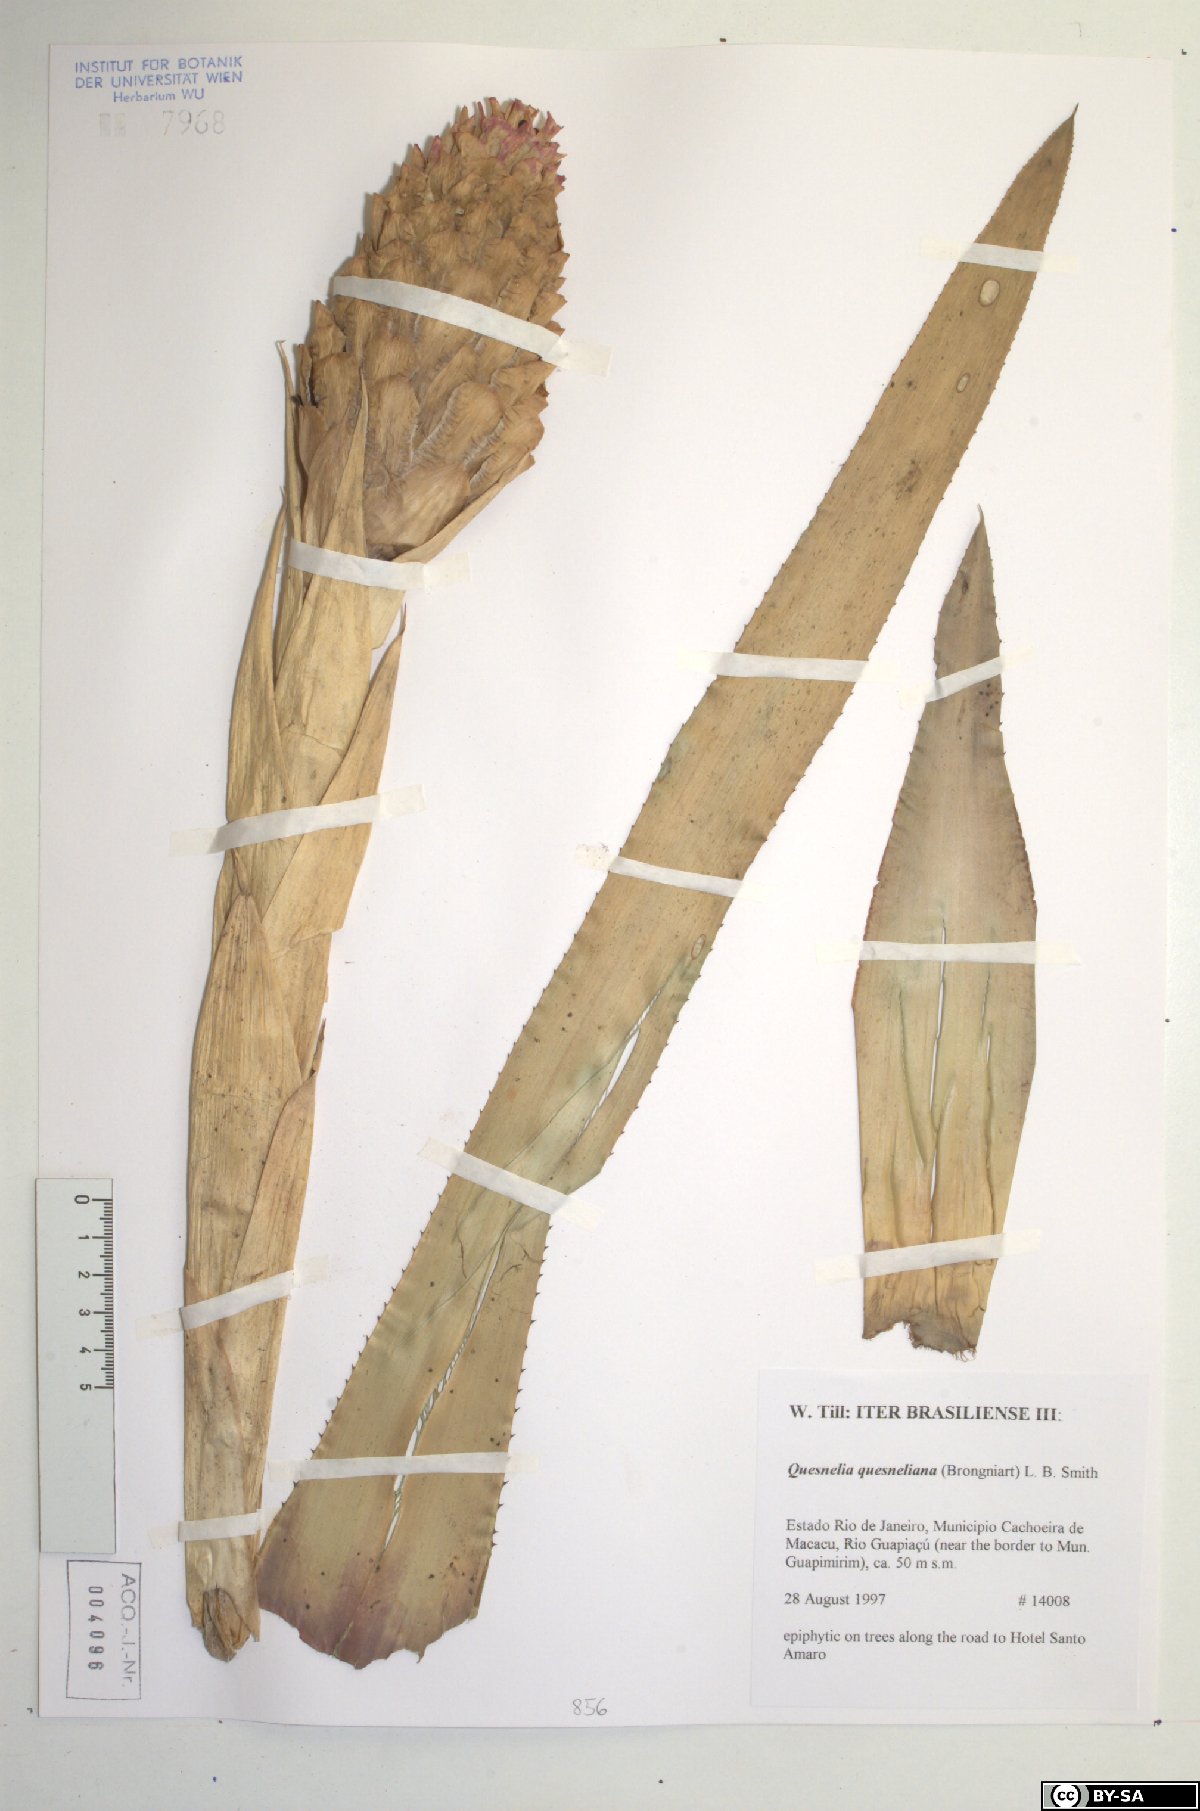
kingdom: Plantae
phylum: Tracheophyta
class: Liliopsida
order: Poales
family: Bromeliaceae
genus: Quesnelia
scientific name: Quesnelia quesneliana
